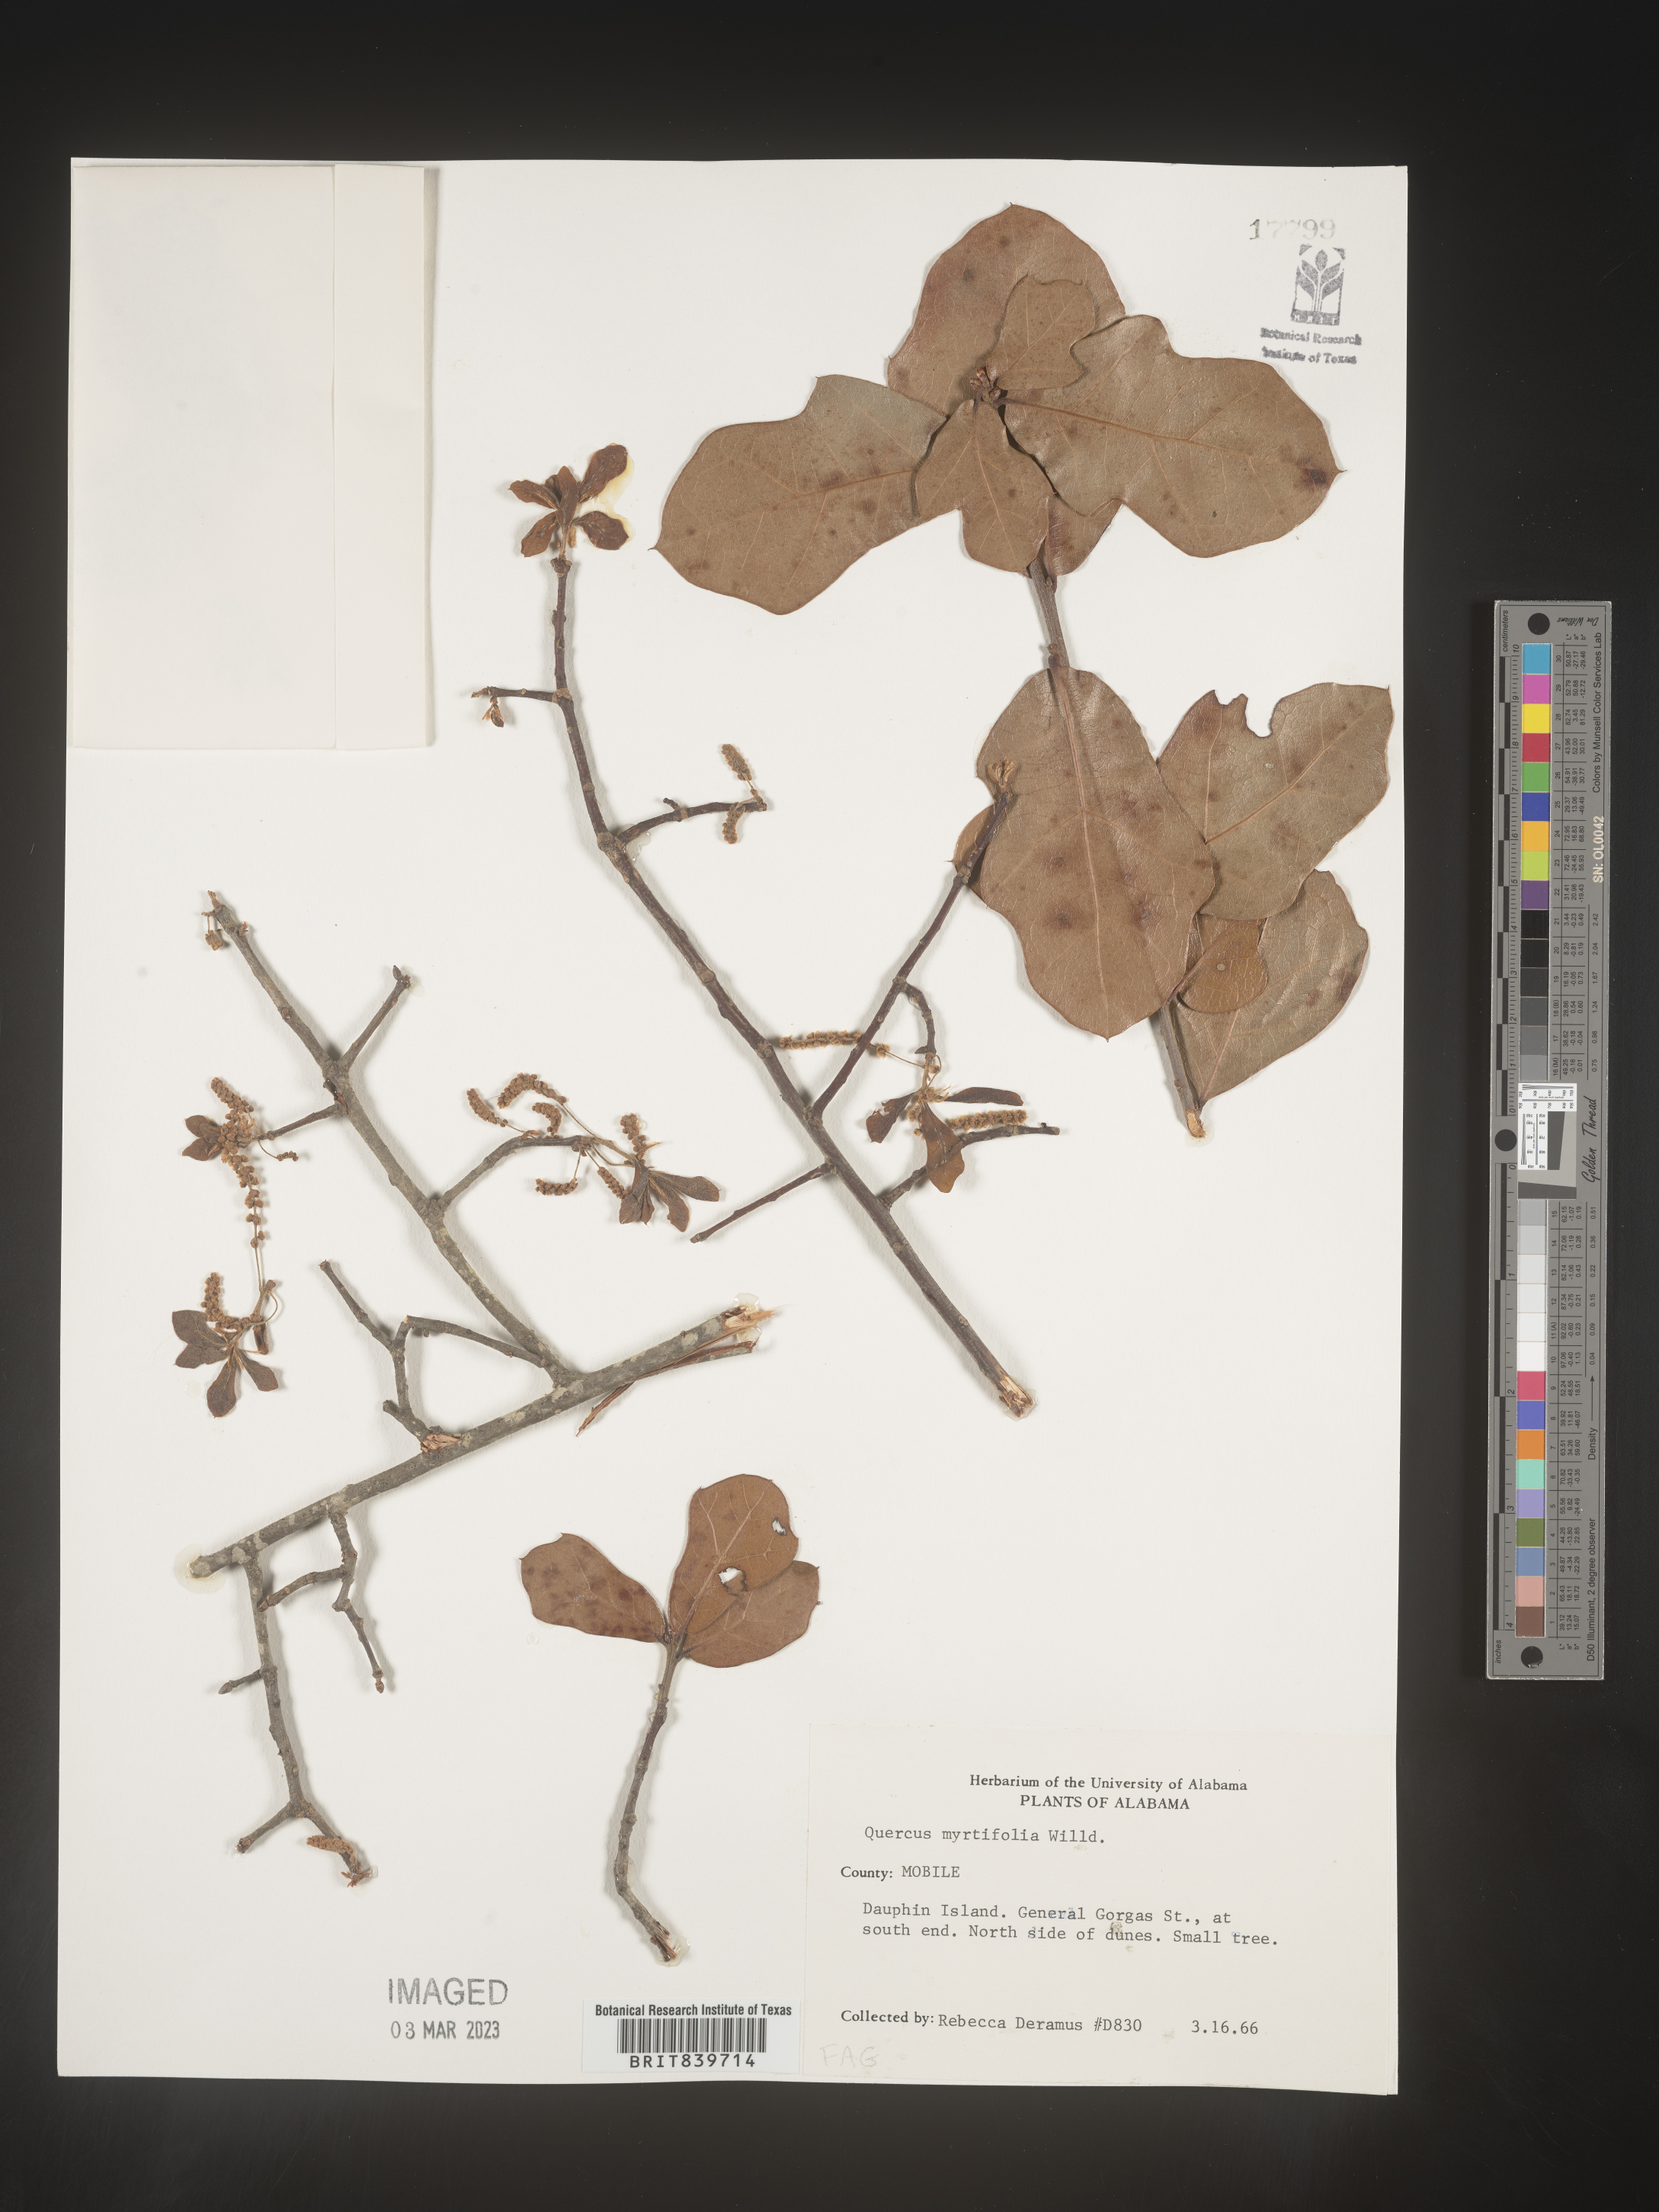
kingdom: Plantae
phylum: Tracheophyta
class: Magnoliopsida
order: Fagales
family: Fagaceae
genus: Quercus
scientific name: Quercus
